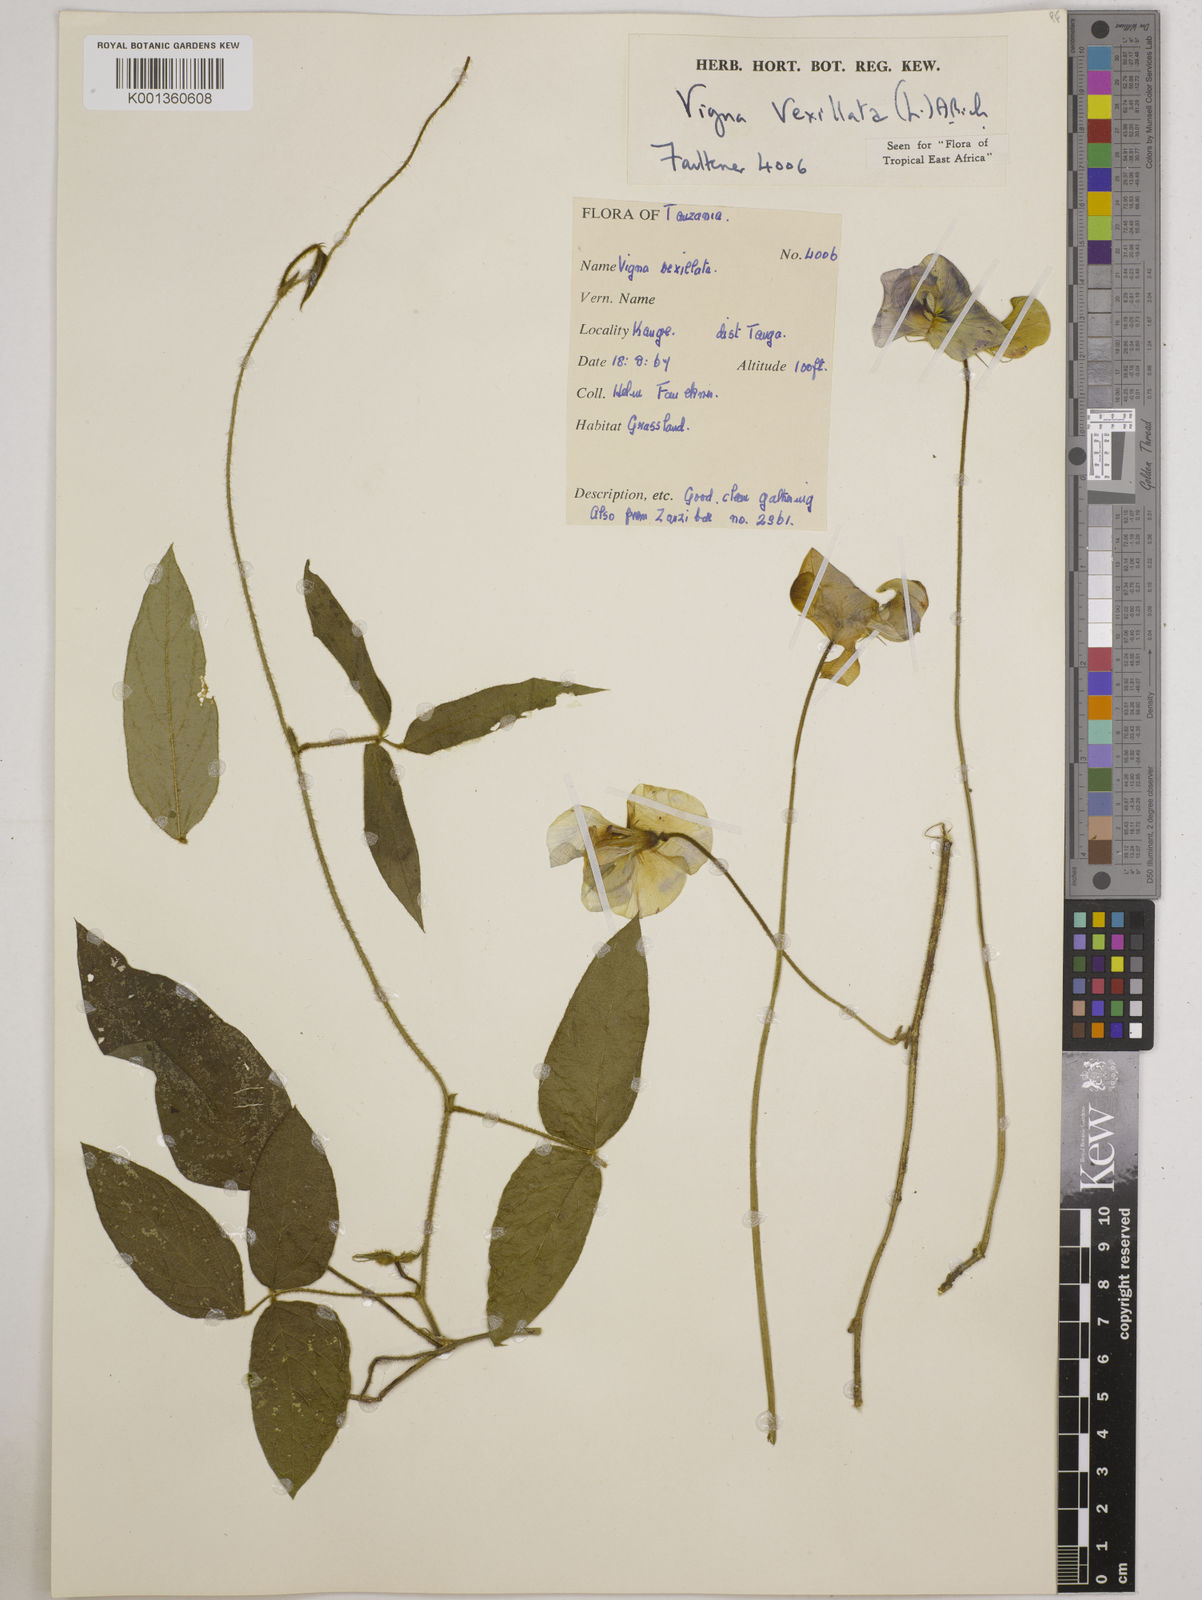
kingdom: Plantae
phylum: Tracheophyta
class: Magnoliopsida
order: Fabales
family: Fabaceae
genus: Vigna
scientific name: Vigna vexillata
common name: Zombi pea
